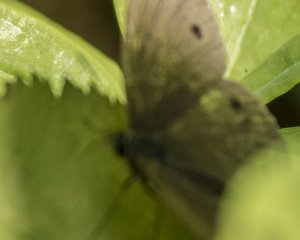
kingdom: Animalia
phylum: Arthropoda
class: Insecta
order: Lepidoptera
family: Nymphalidae
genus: Euptychia
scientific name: Euptychia cymela
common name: Little Wood Satyr
